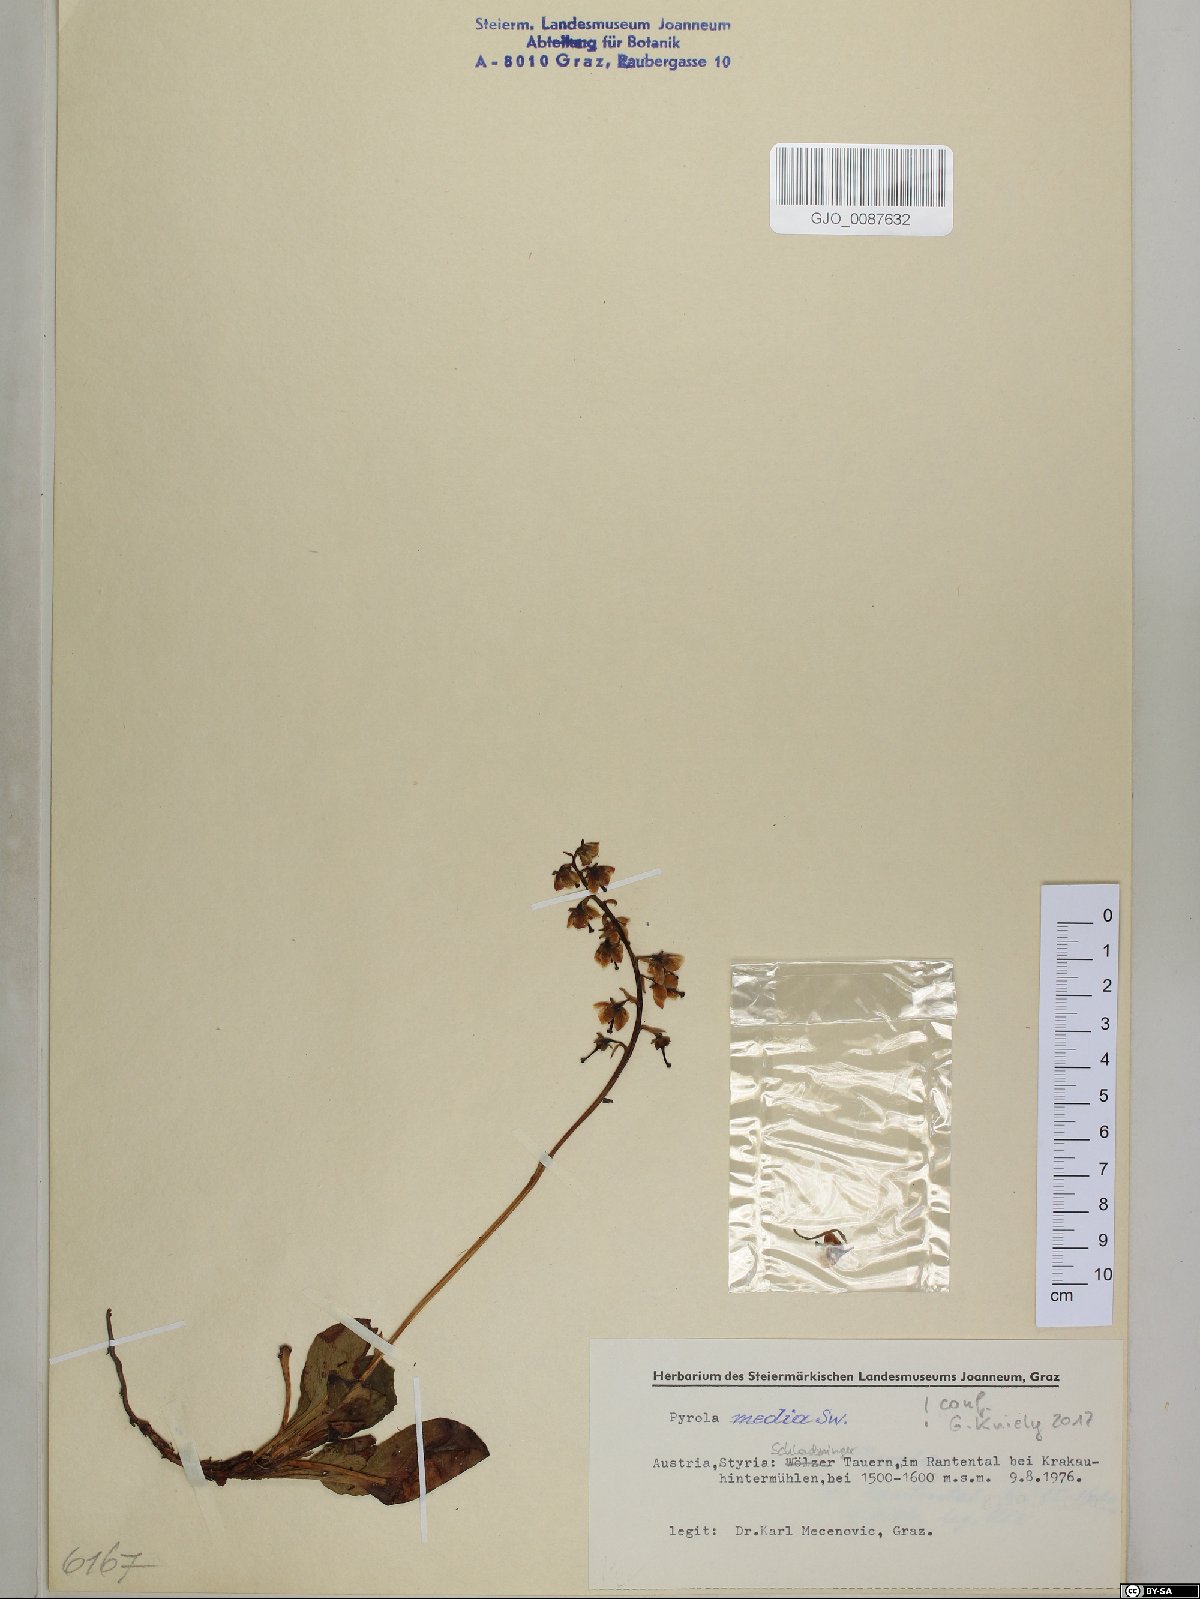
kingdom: Plantae
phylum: Tracheophyta
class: Magnoliopsida
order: Ericales
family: Ericaceae
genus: Pyrola
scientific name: Pyrola media
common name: Intermediate wintergreen
